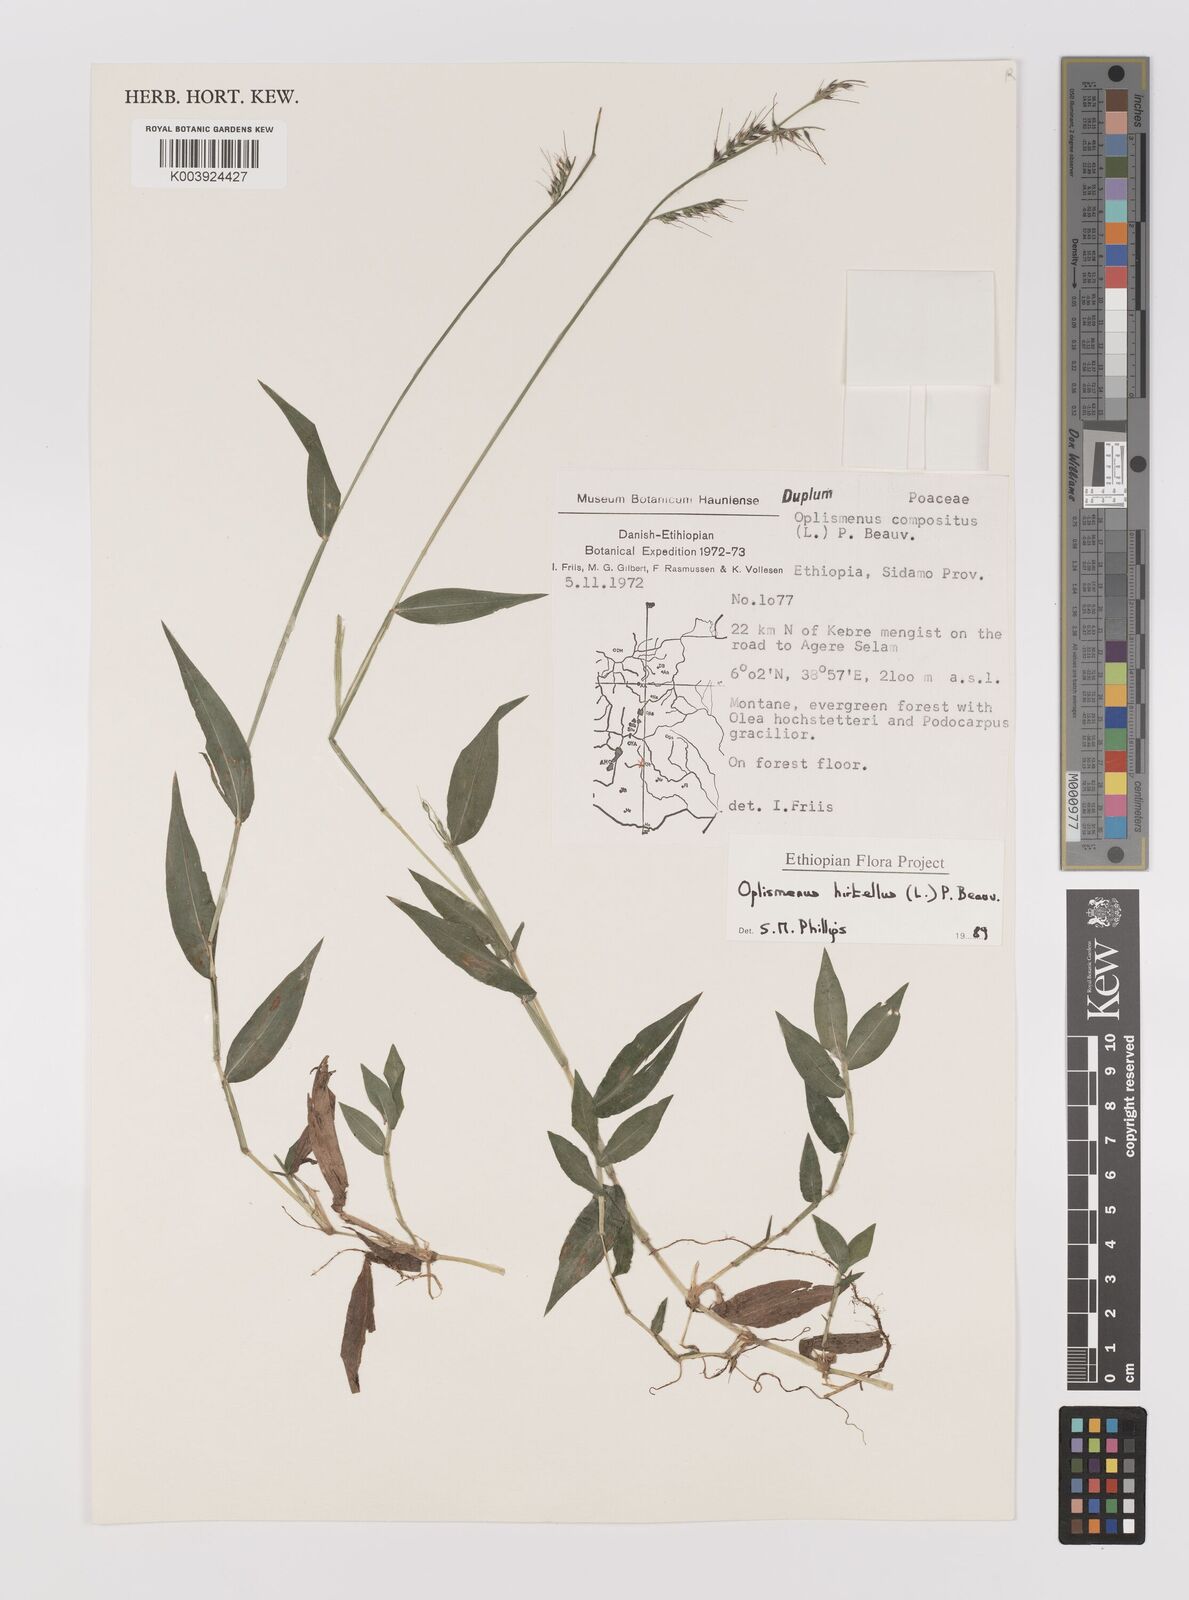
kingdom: Plantae
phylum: Tracheophyta
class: Liliopsida
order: Poales
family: Poaceae
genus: Oplismenus
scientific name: Oplismenus hirtellus
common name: Basketgrass
